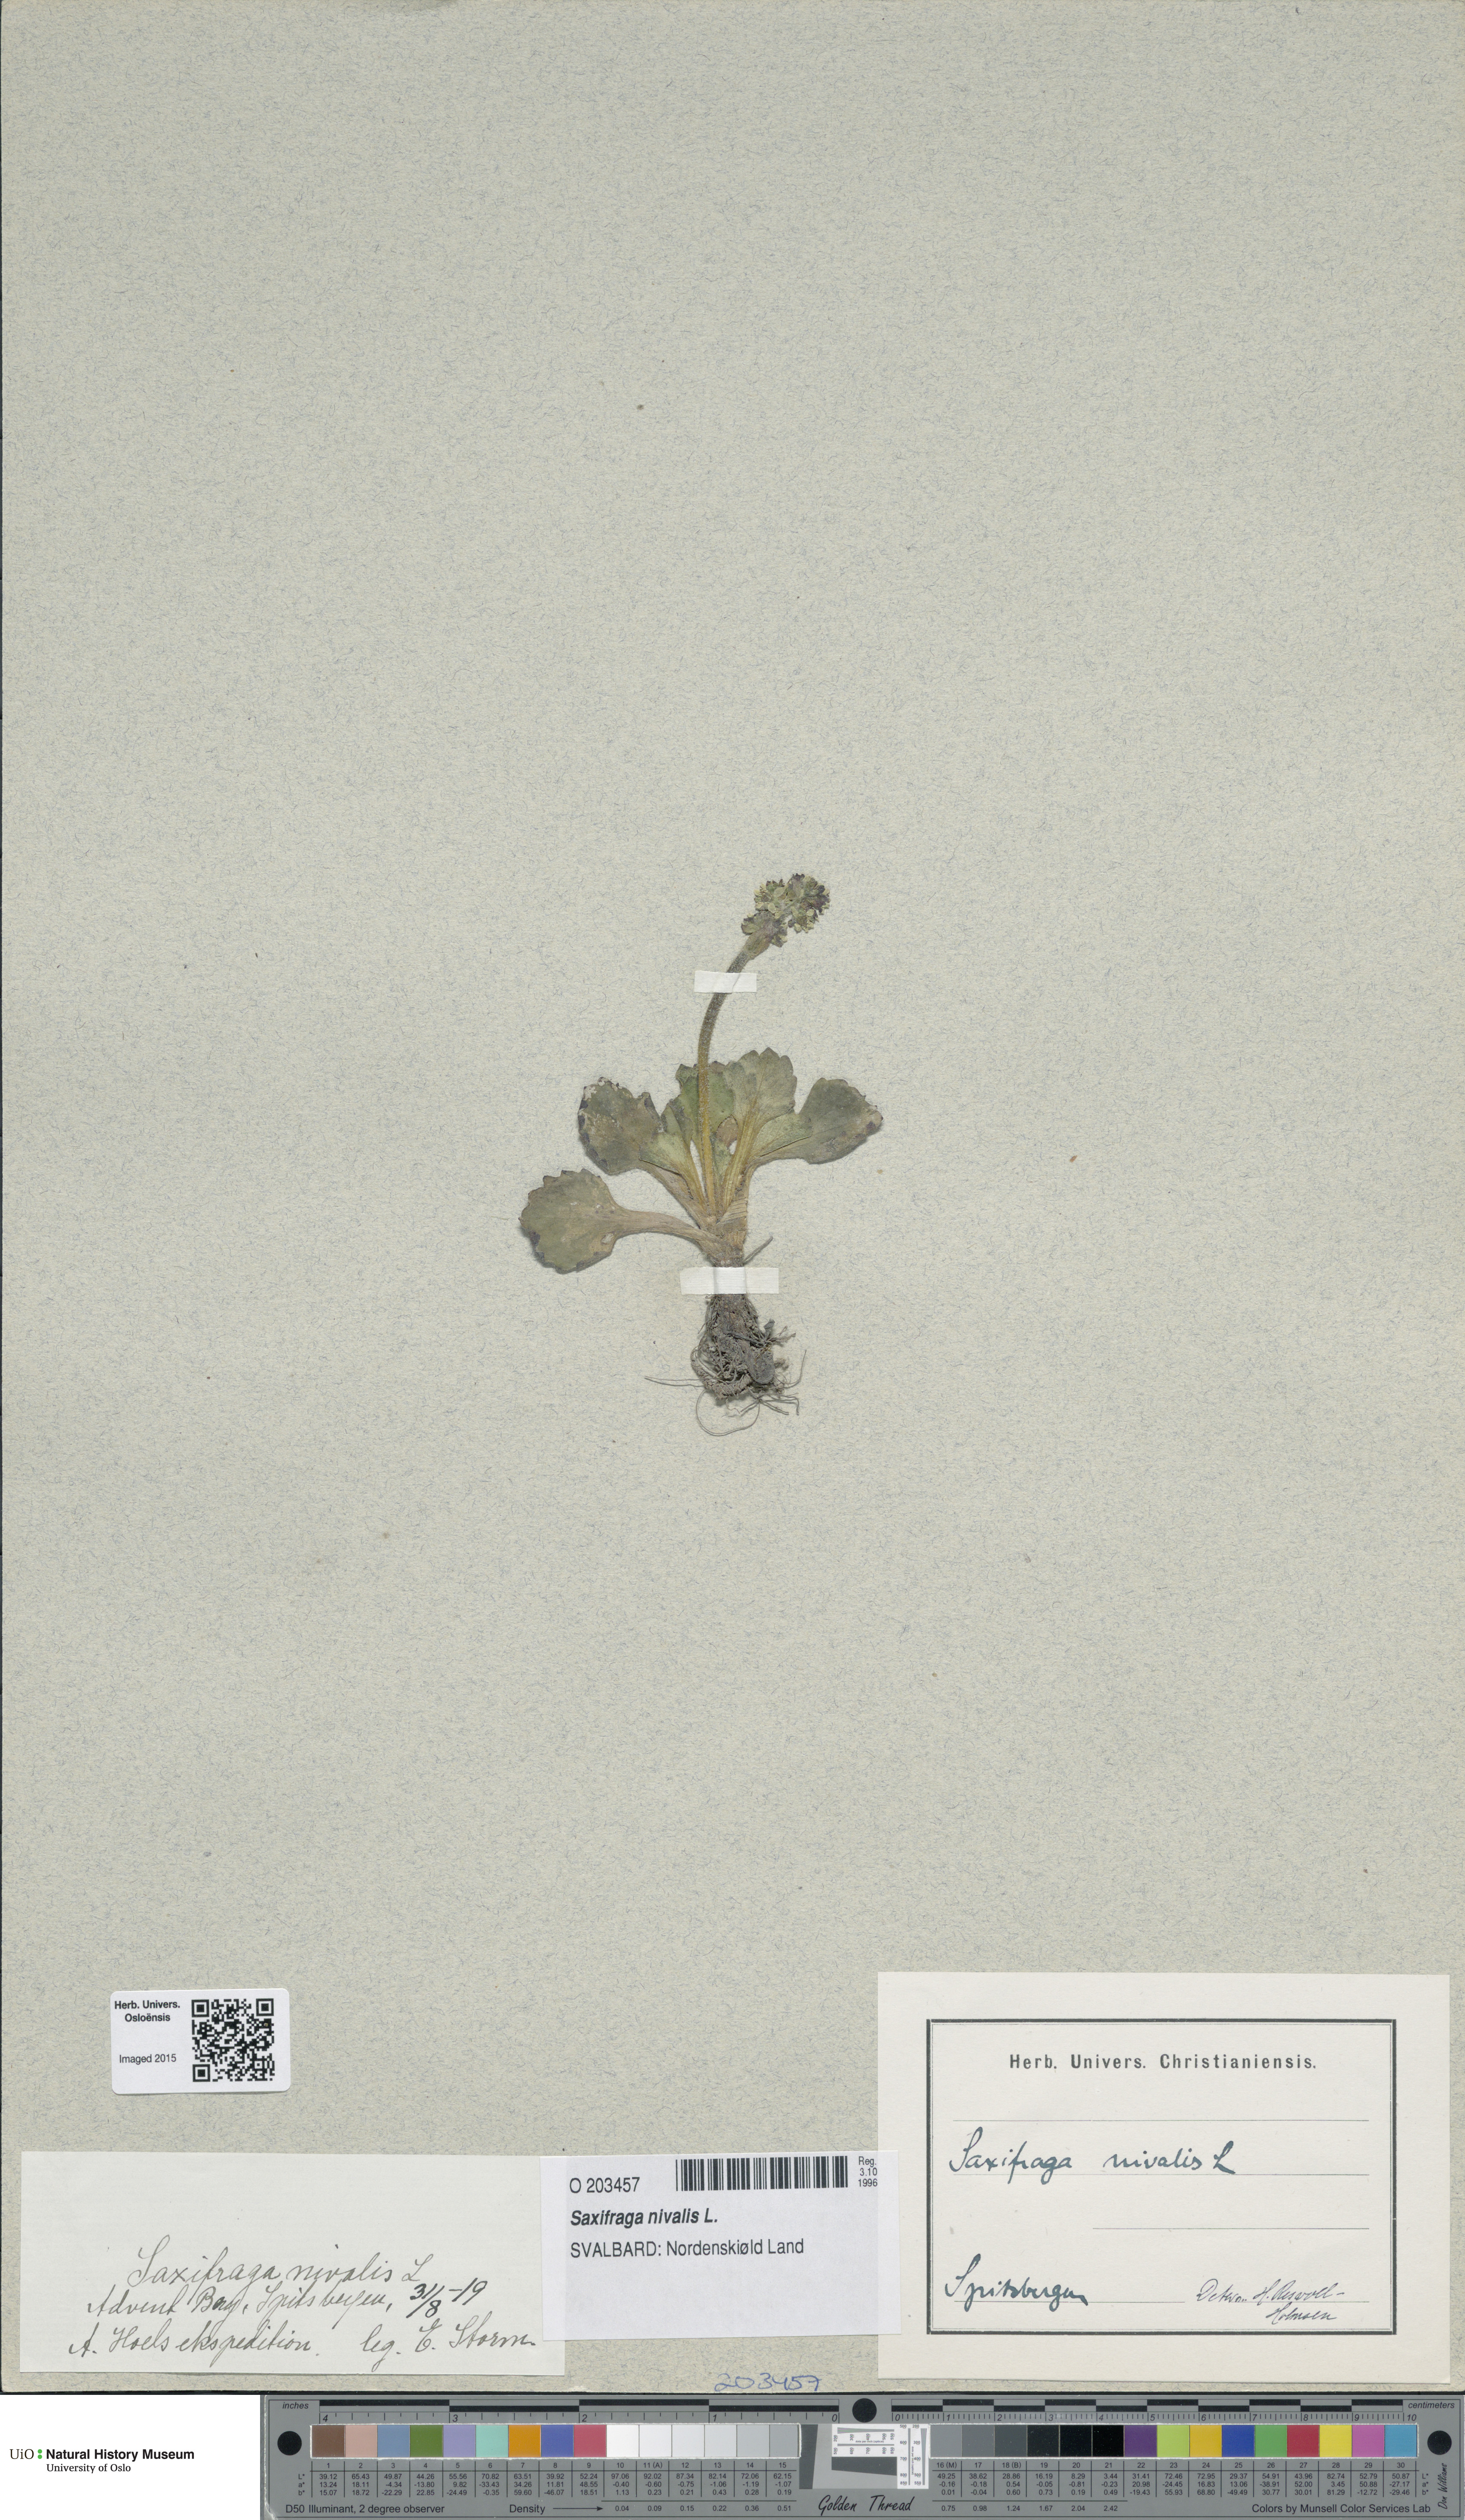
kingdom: Plantae
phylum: Tracheophyta
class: Magnoliopsida
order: Saxifragales
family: Saxifragaceae
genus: Micranthes
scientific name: Micranthes nivalis
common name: Alpine saxifrage
